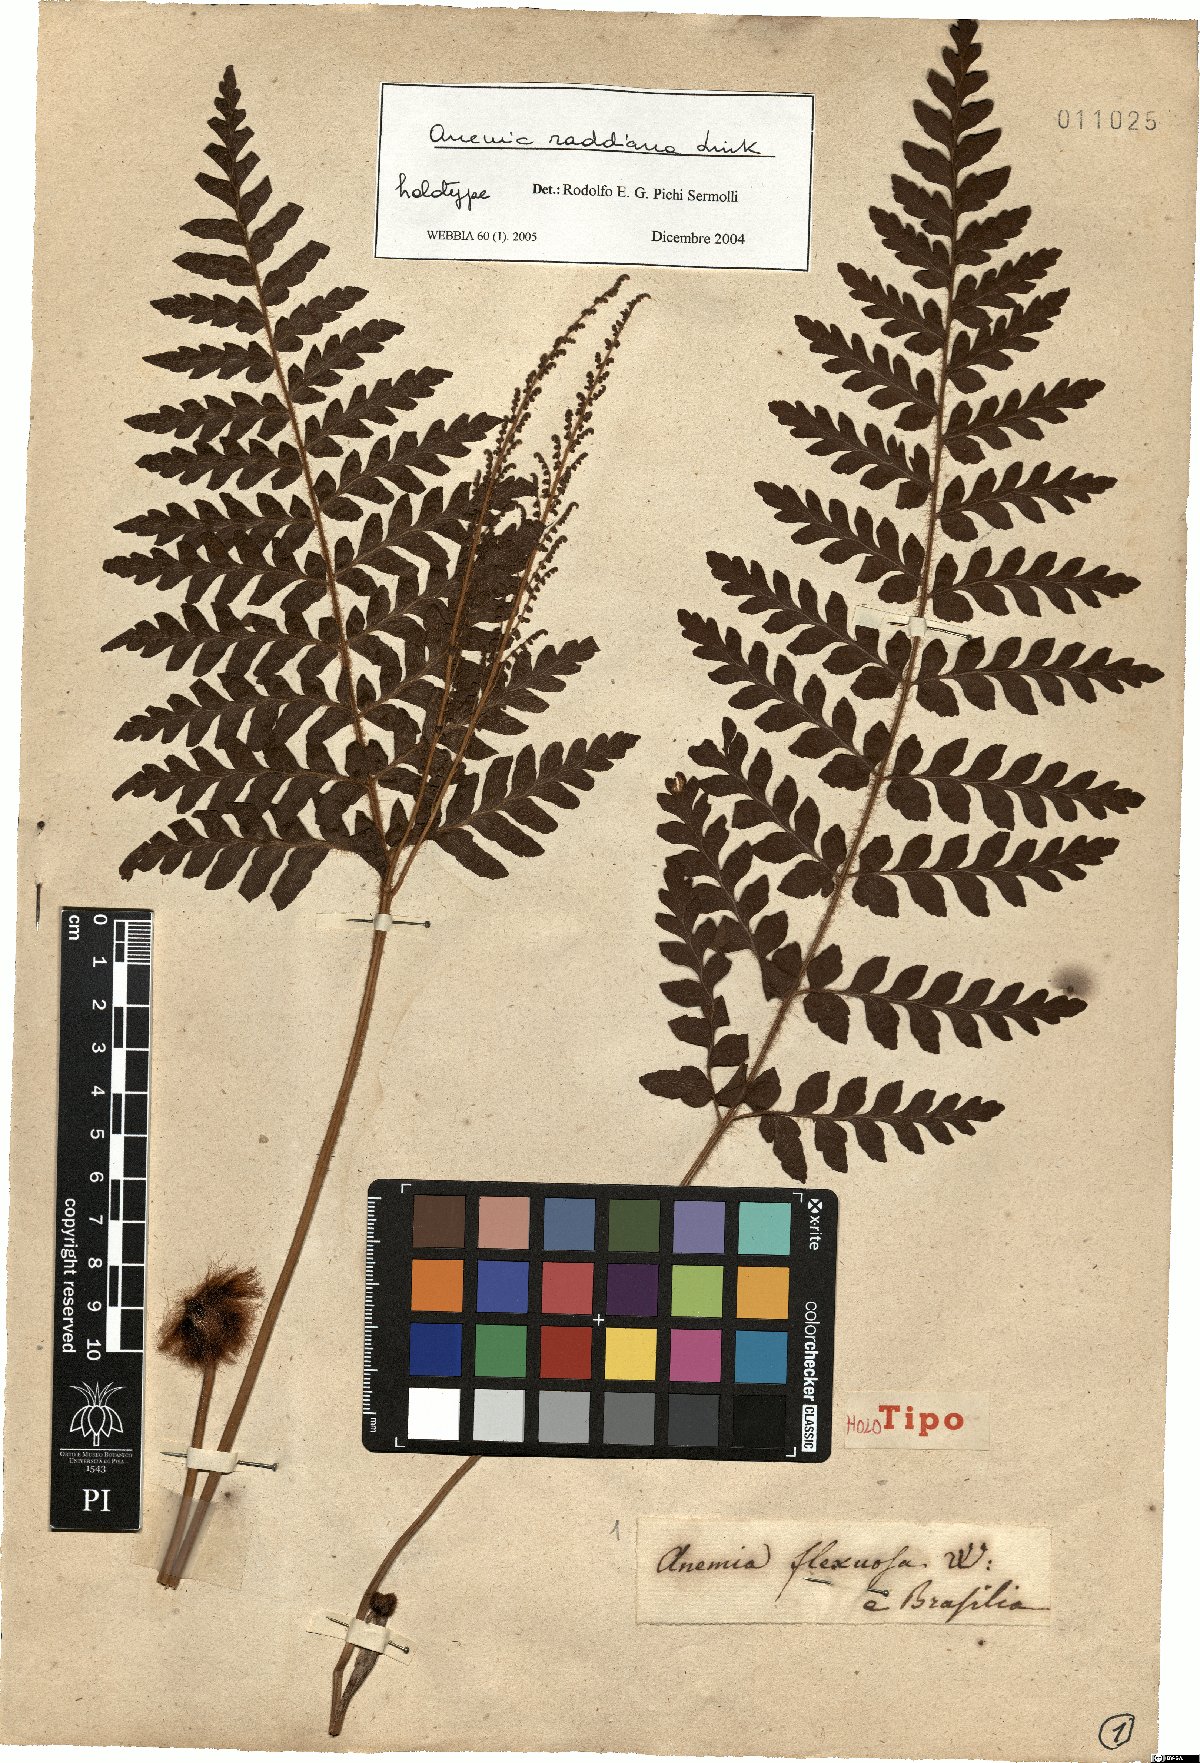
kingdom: Plantae
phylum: Tracheophyta
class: Polypodiopsida
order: Schizaeales
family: Anemiaceae
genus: Anemia
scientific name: Anemia raddiana
